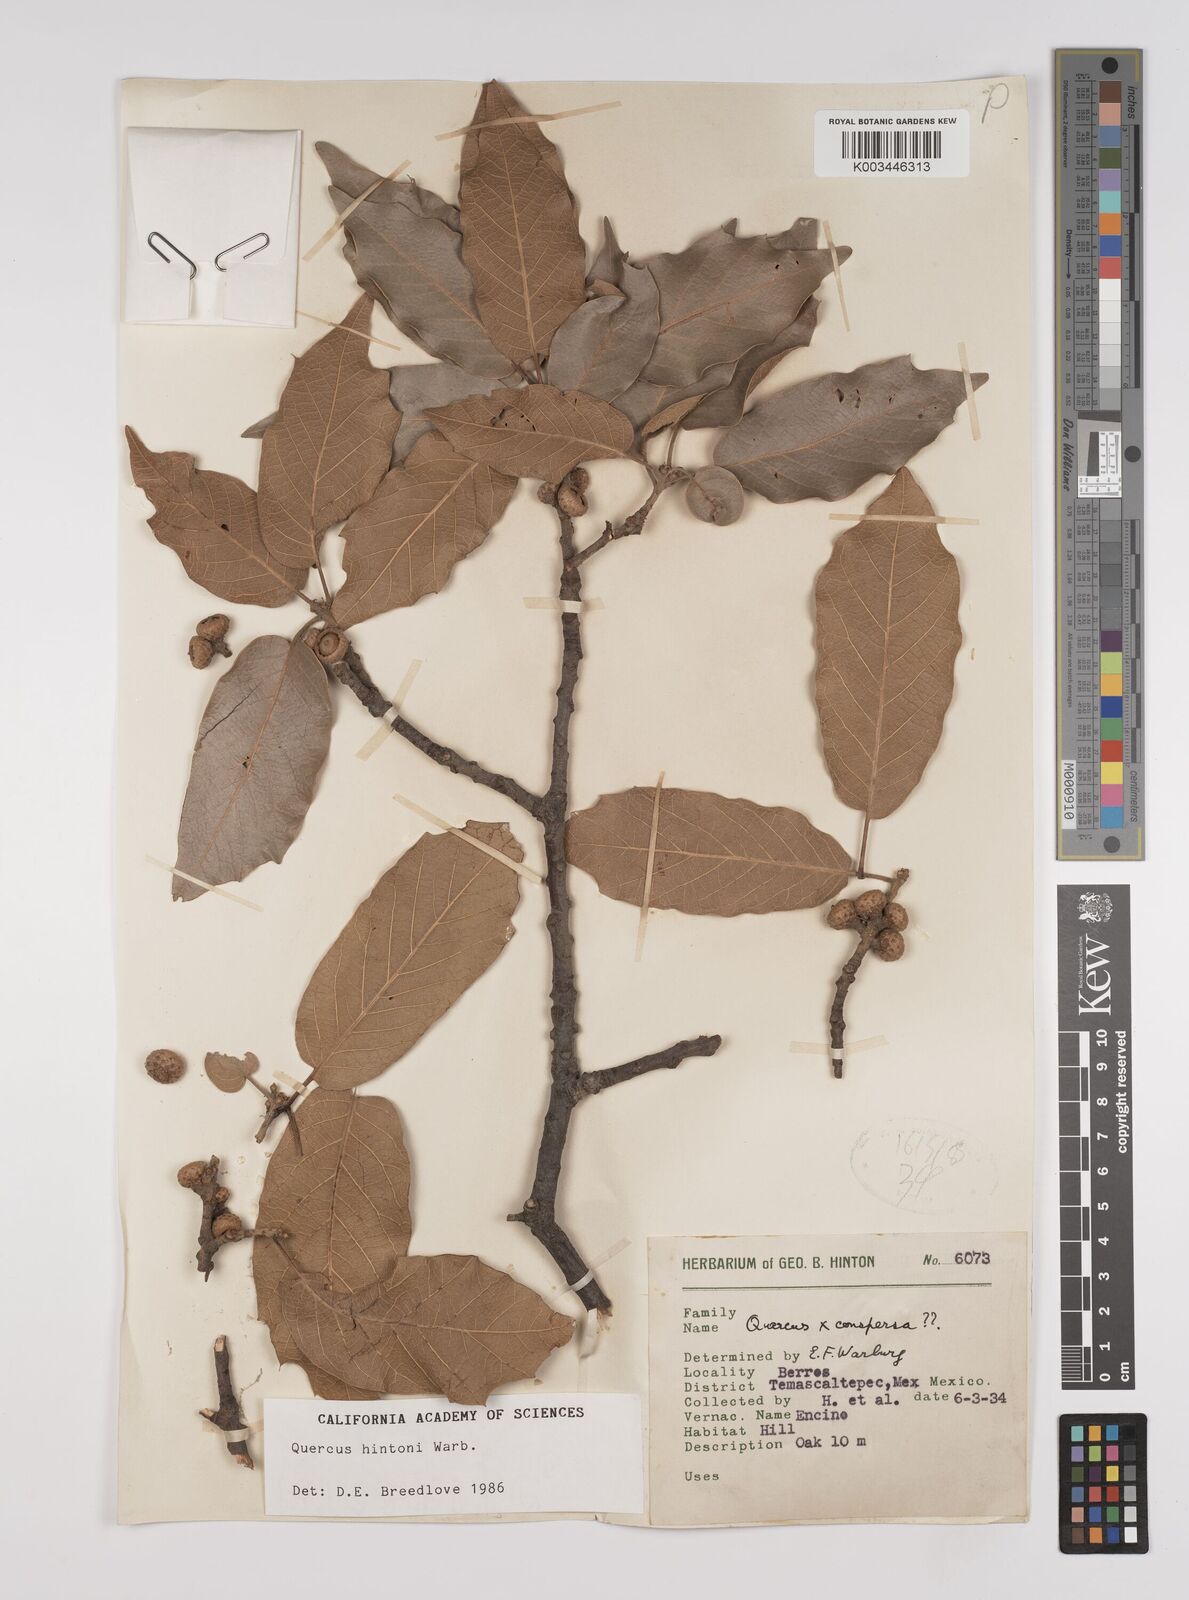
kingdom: Plantae
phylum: Tracheophyta
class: Magnoliopsida
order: Fagales
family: Fagaceae
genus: Quercus
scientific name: Quercus hintonii
